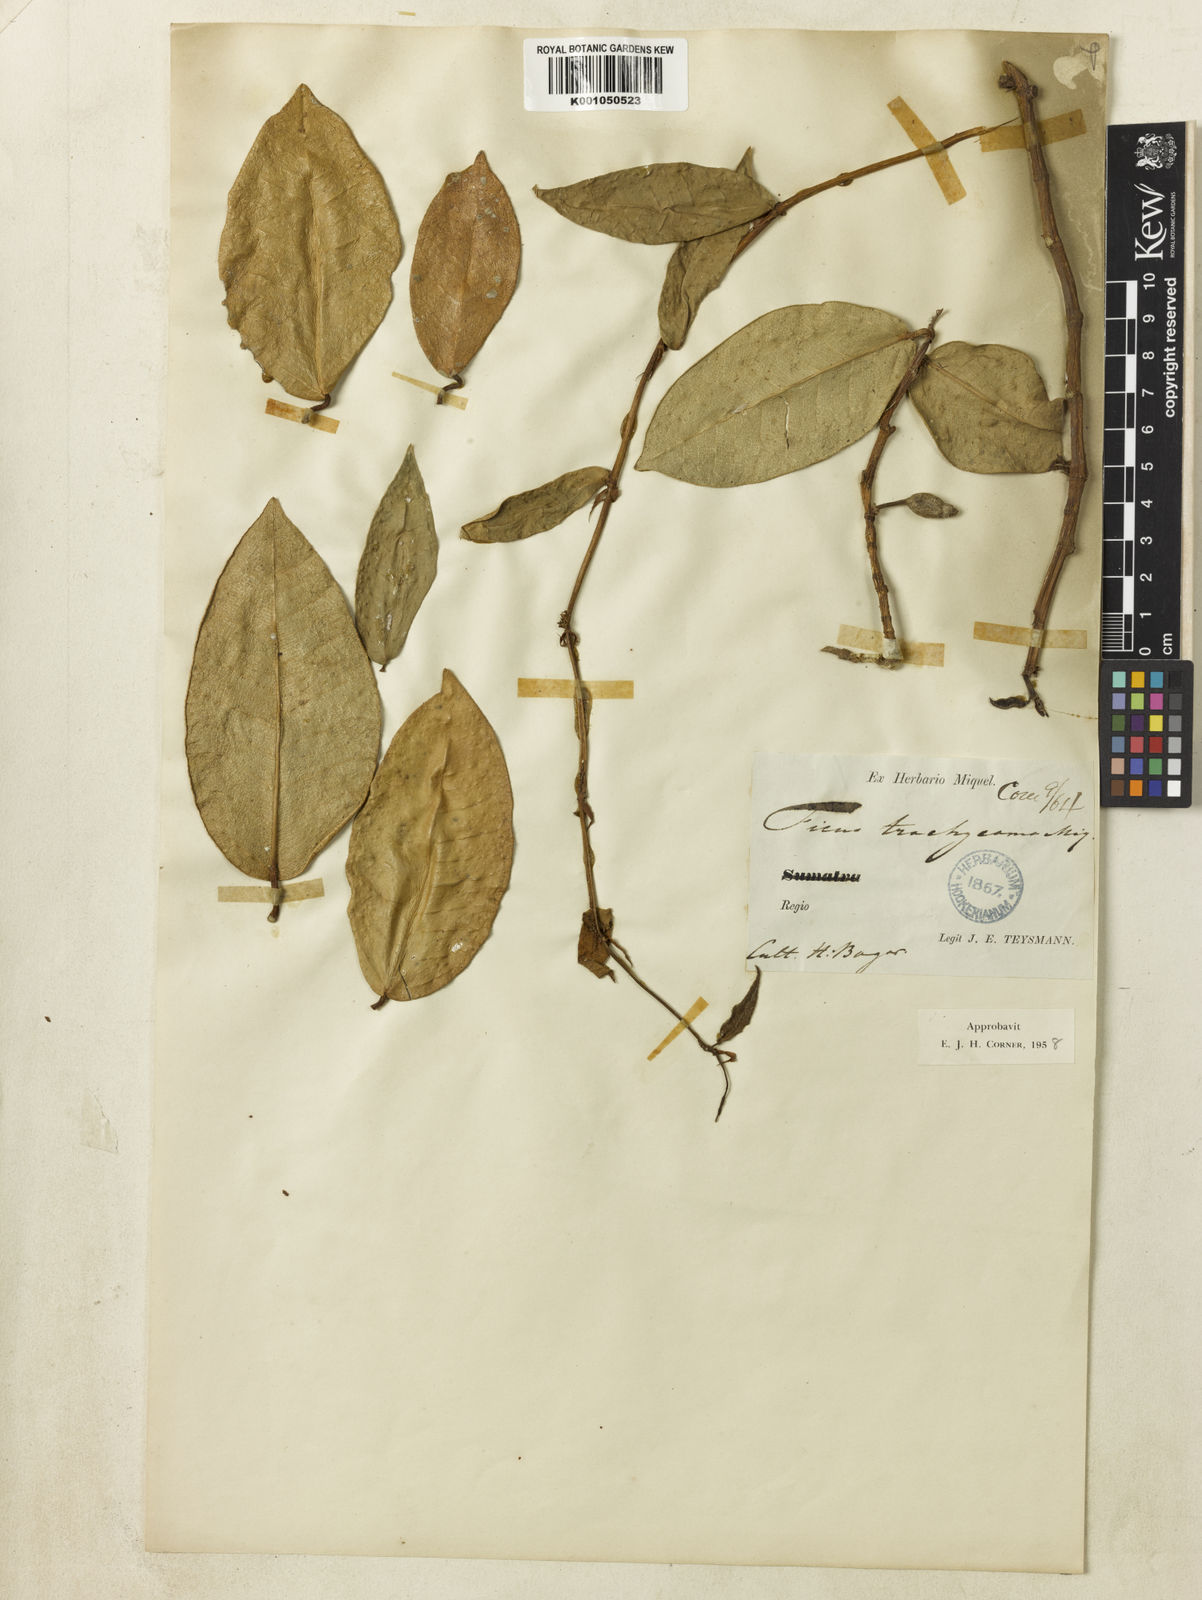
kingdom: Plantae
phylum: Tracheophyta
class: Magnoliopsida
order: Rosales
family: Moraceae
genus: Ficus
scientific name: Ficus trachycoma
